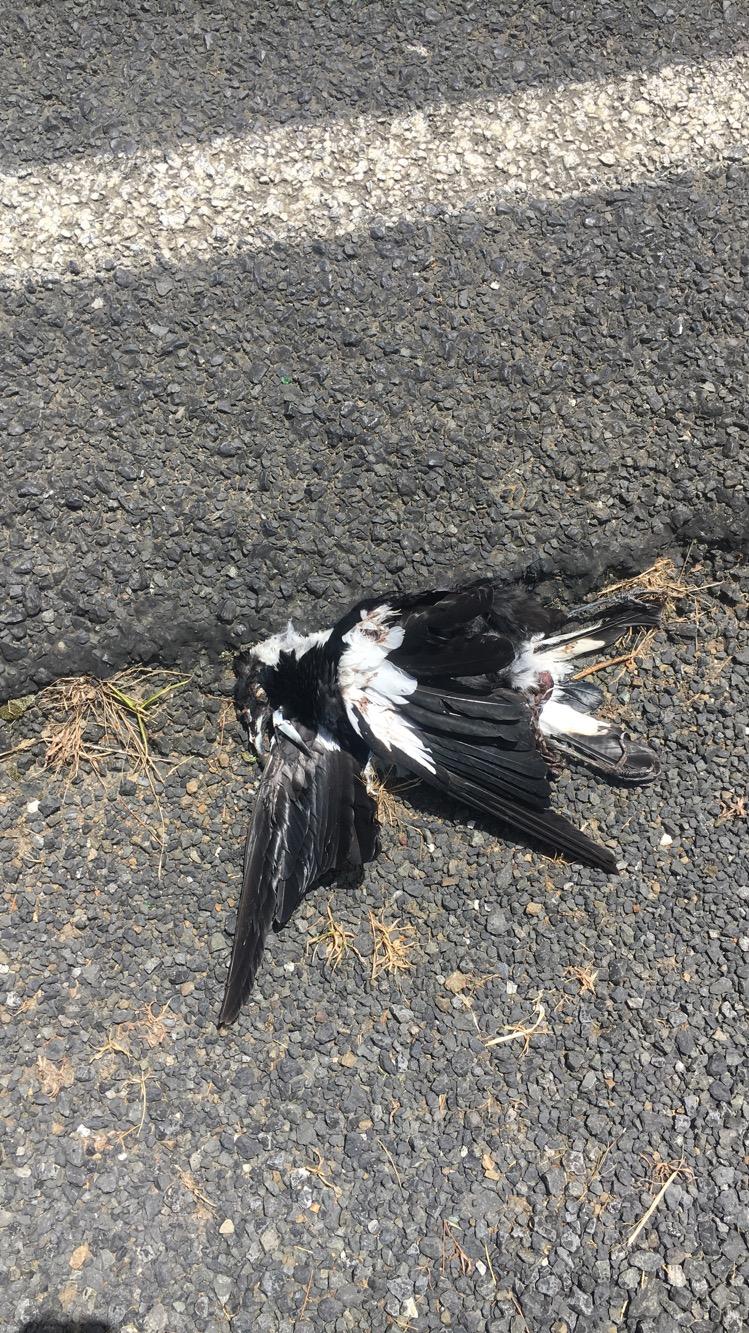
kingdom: Animalia
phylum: Chordata
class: Aves
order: Passeriformes
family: Cracticidae
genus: Gymnorhina
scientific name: Gymnorhina tibicen
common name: Australian magpie
